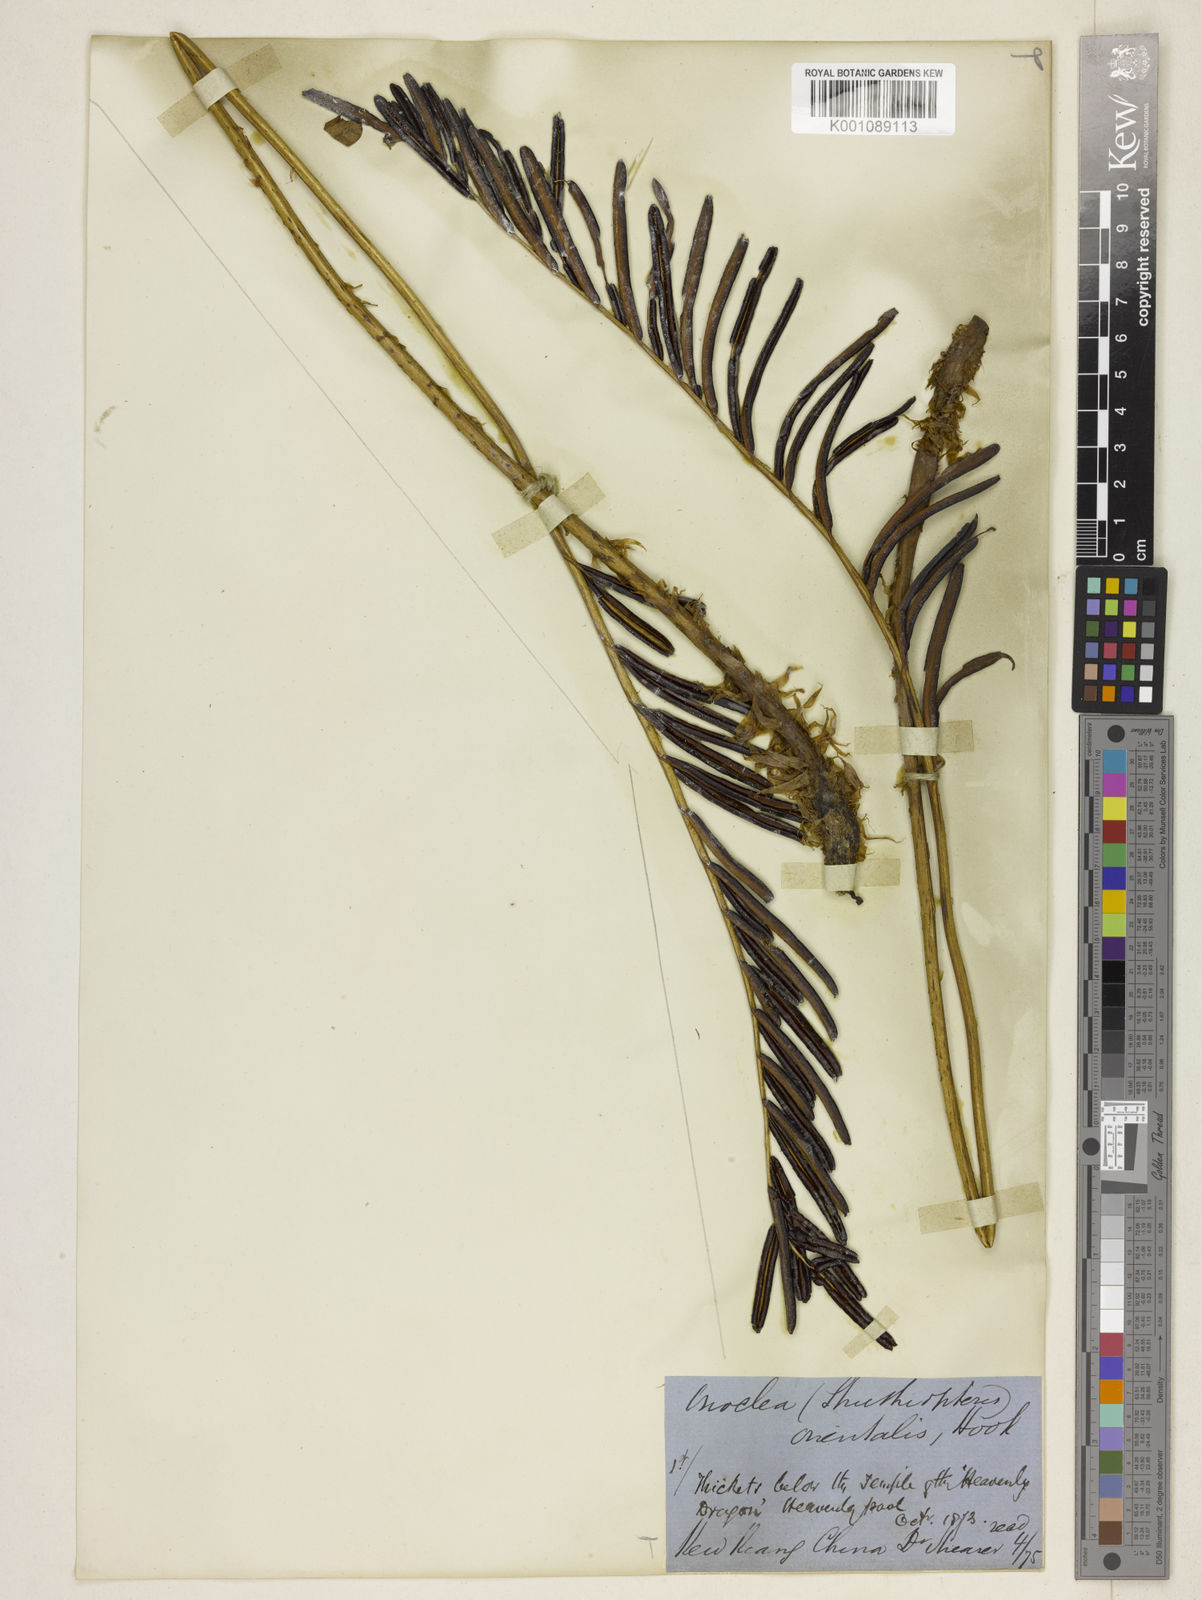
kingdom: Plantae
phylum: Tracheophyta
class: Polypodiopsida
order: Polypodiales
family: Onocleaceae
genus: Pentarhizidium
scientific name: Pentarhizidium orientale
